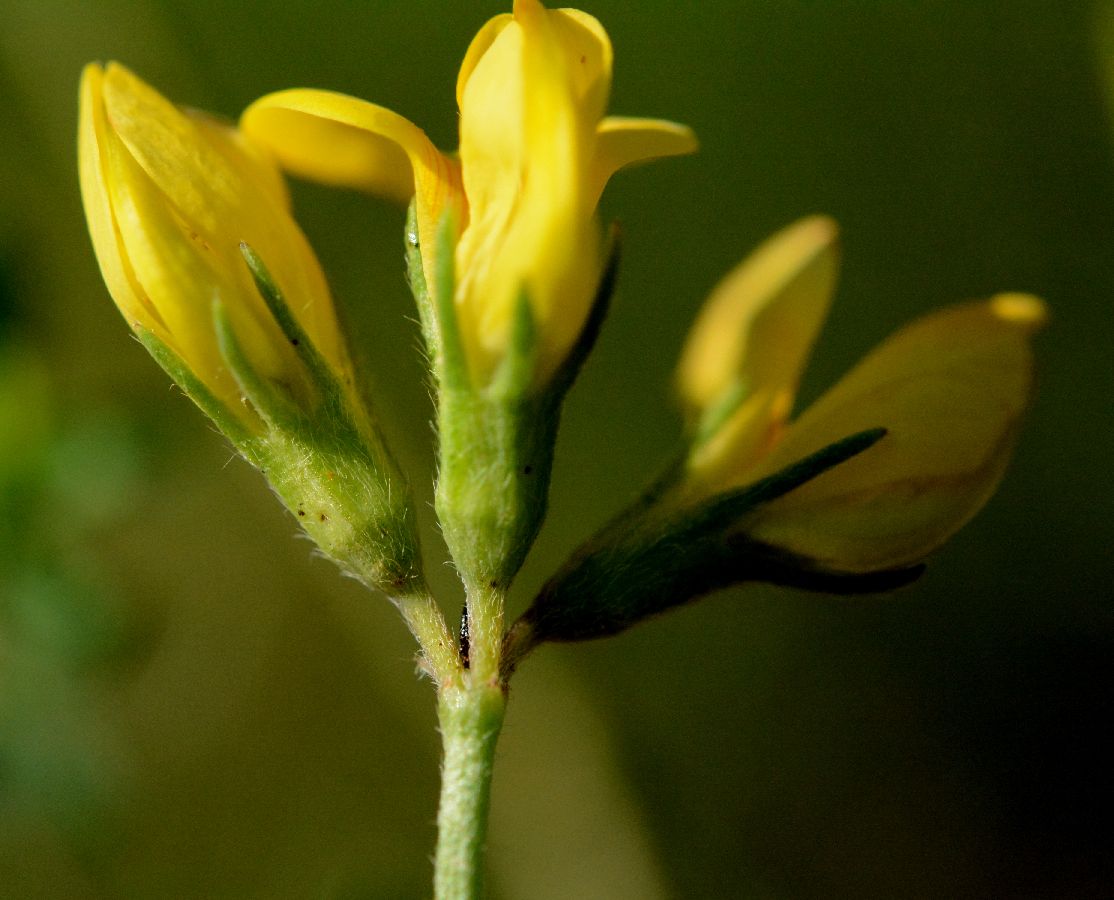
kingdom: Plantae
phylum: Tracheophyta
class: Magnoliopsida
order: Fabales
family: Fabaceae
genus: Lotus
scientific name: Lotus
